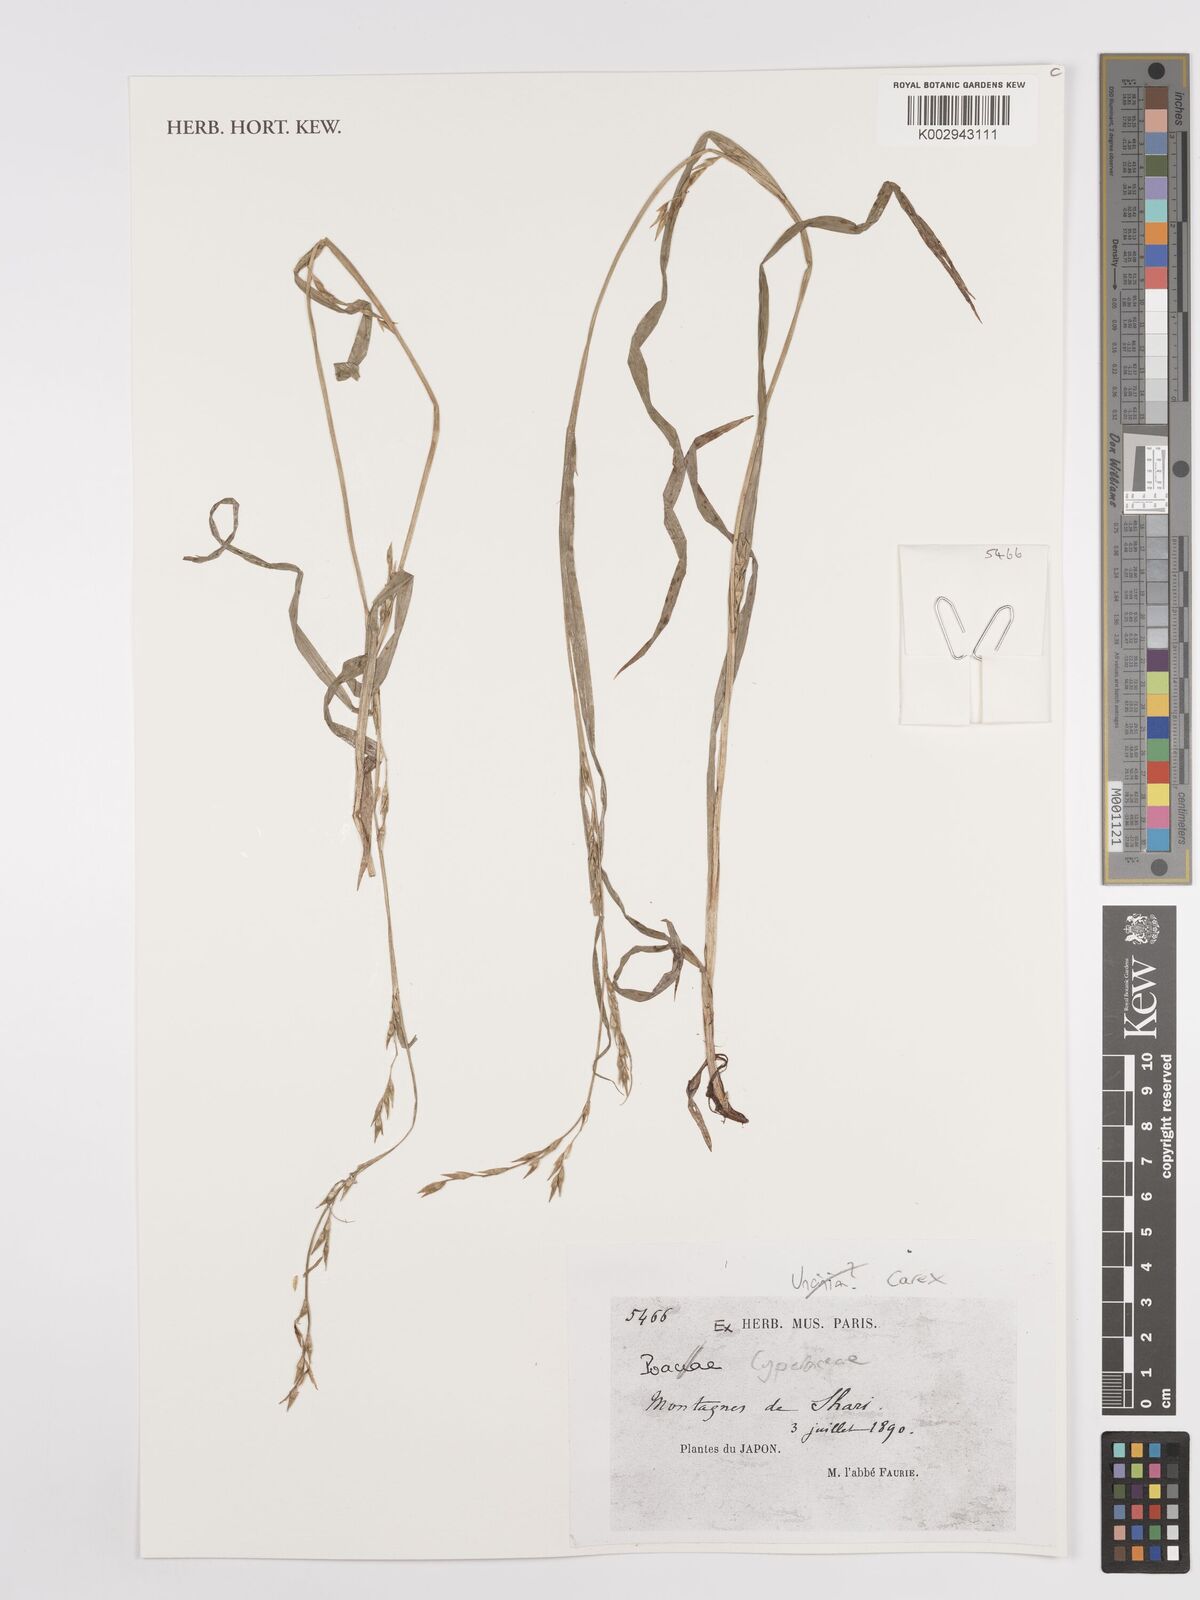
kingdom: Plantae
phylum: Tracheophyta
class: Liliopsida
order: Poales
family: Cyperaceae
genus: Carex
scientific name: Carex
